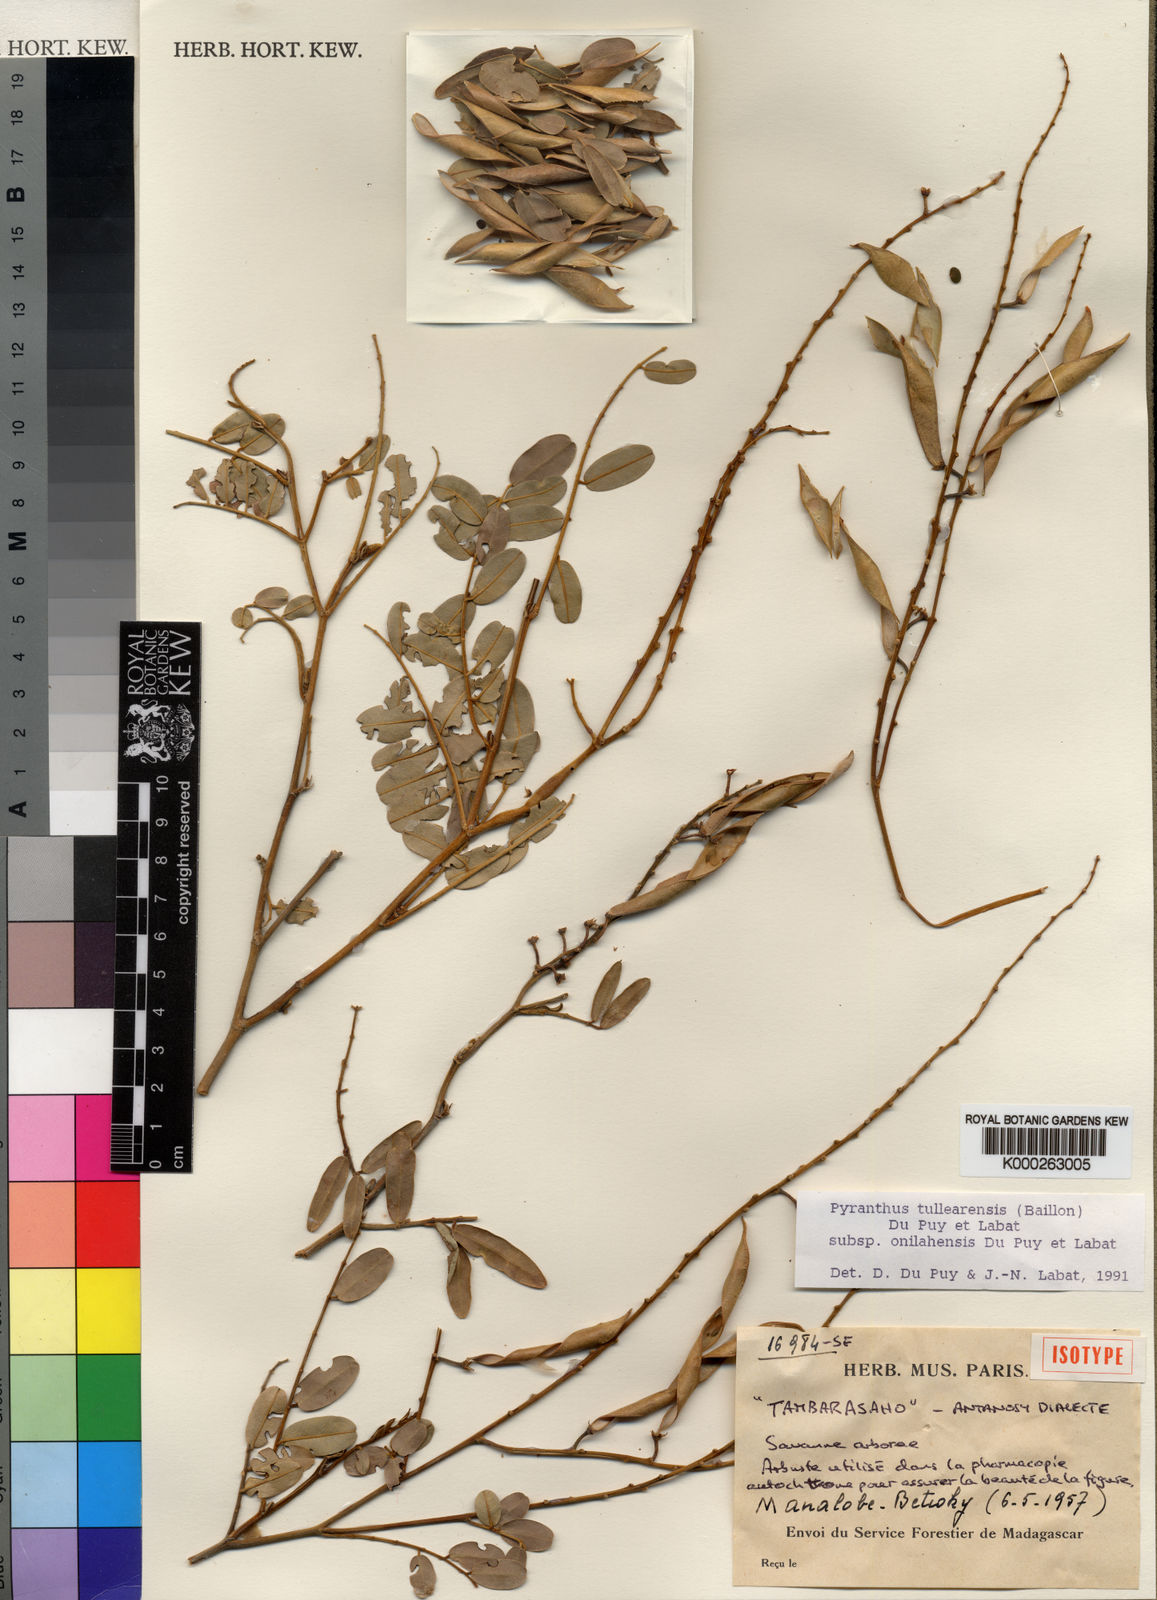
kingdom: Plantae
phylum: Tracheophyta
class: Magnoliopsida
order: Fabales
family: Fabaceae
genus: Pyranthus
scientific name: Pyranthus tullearensis
